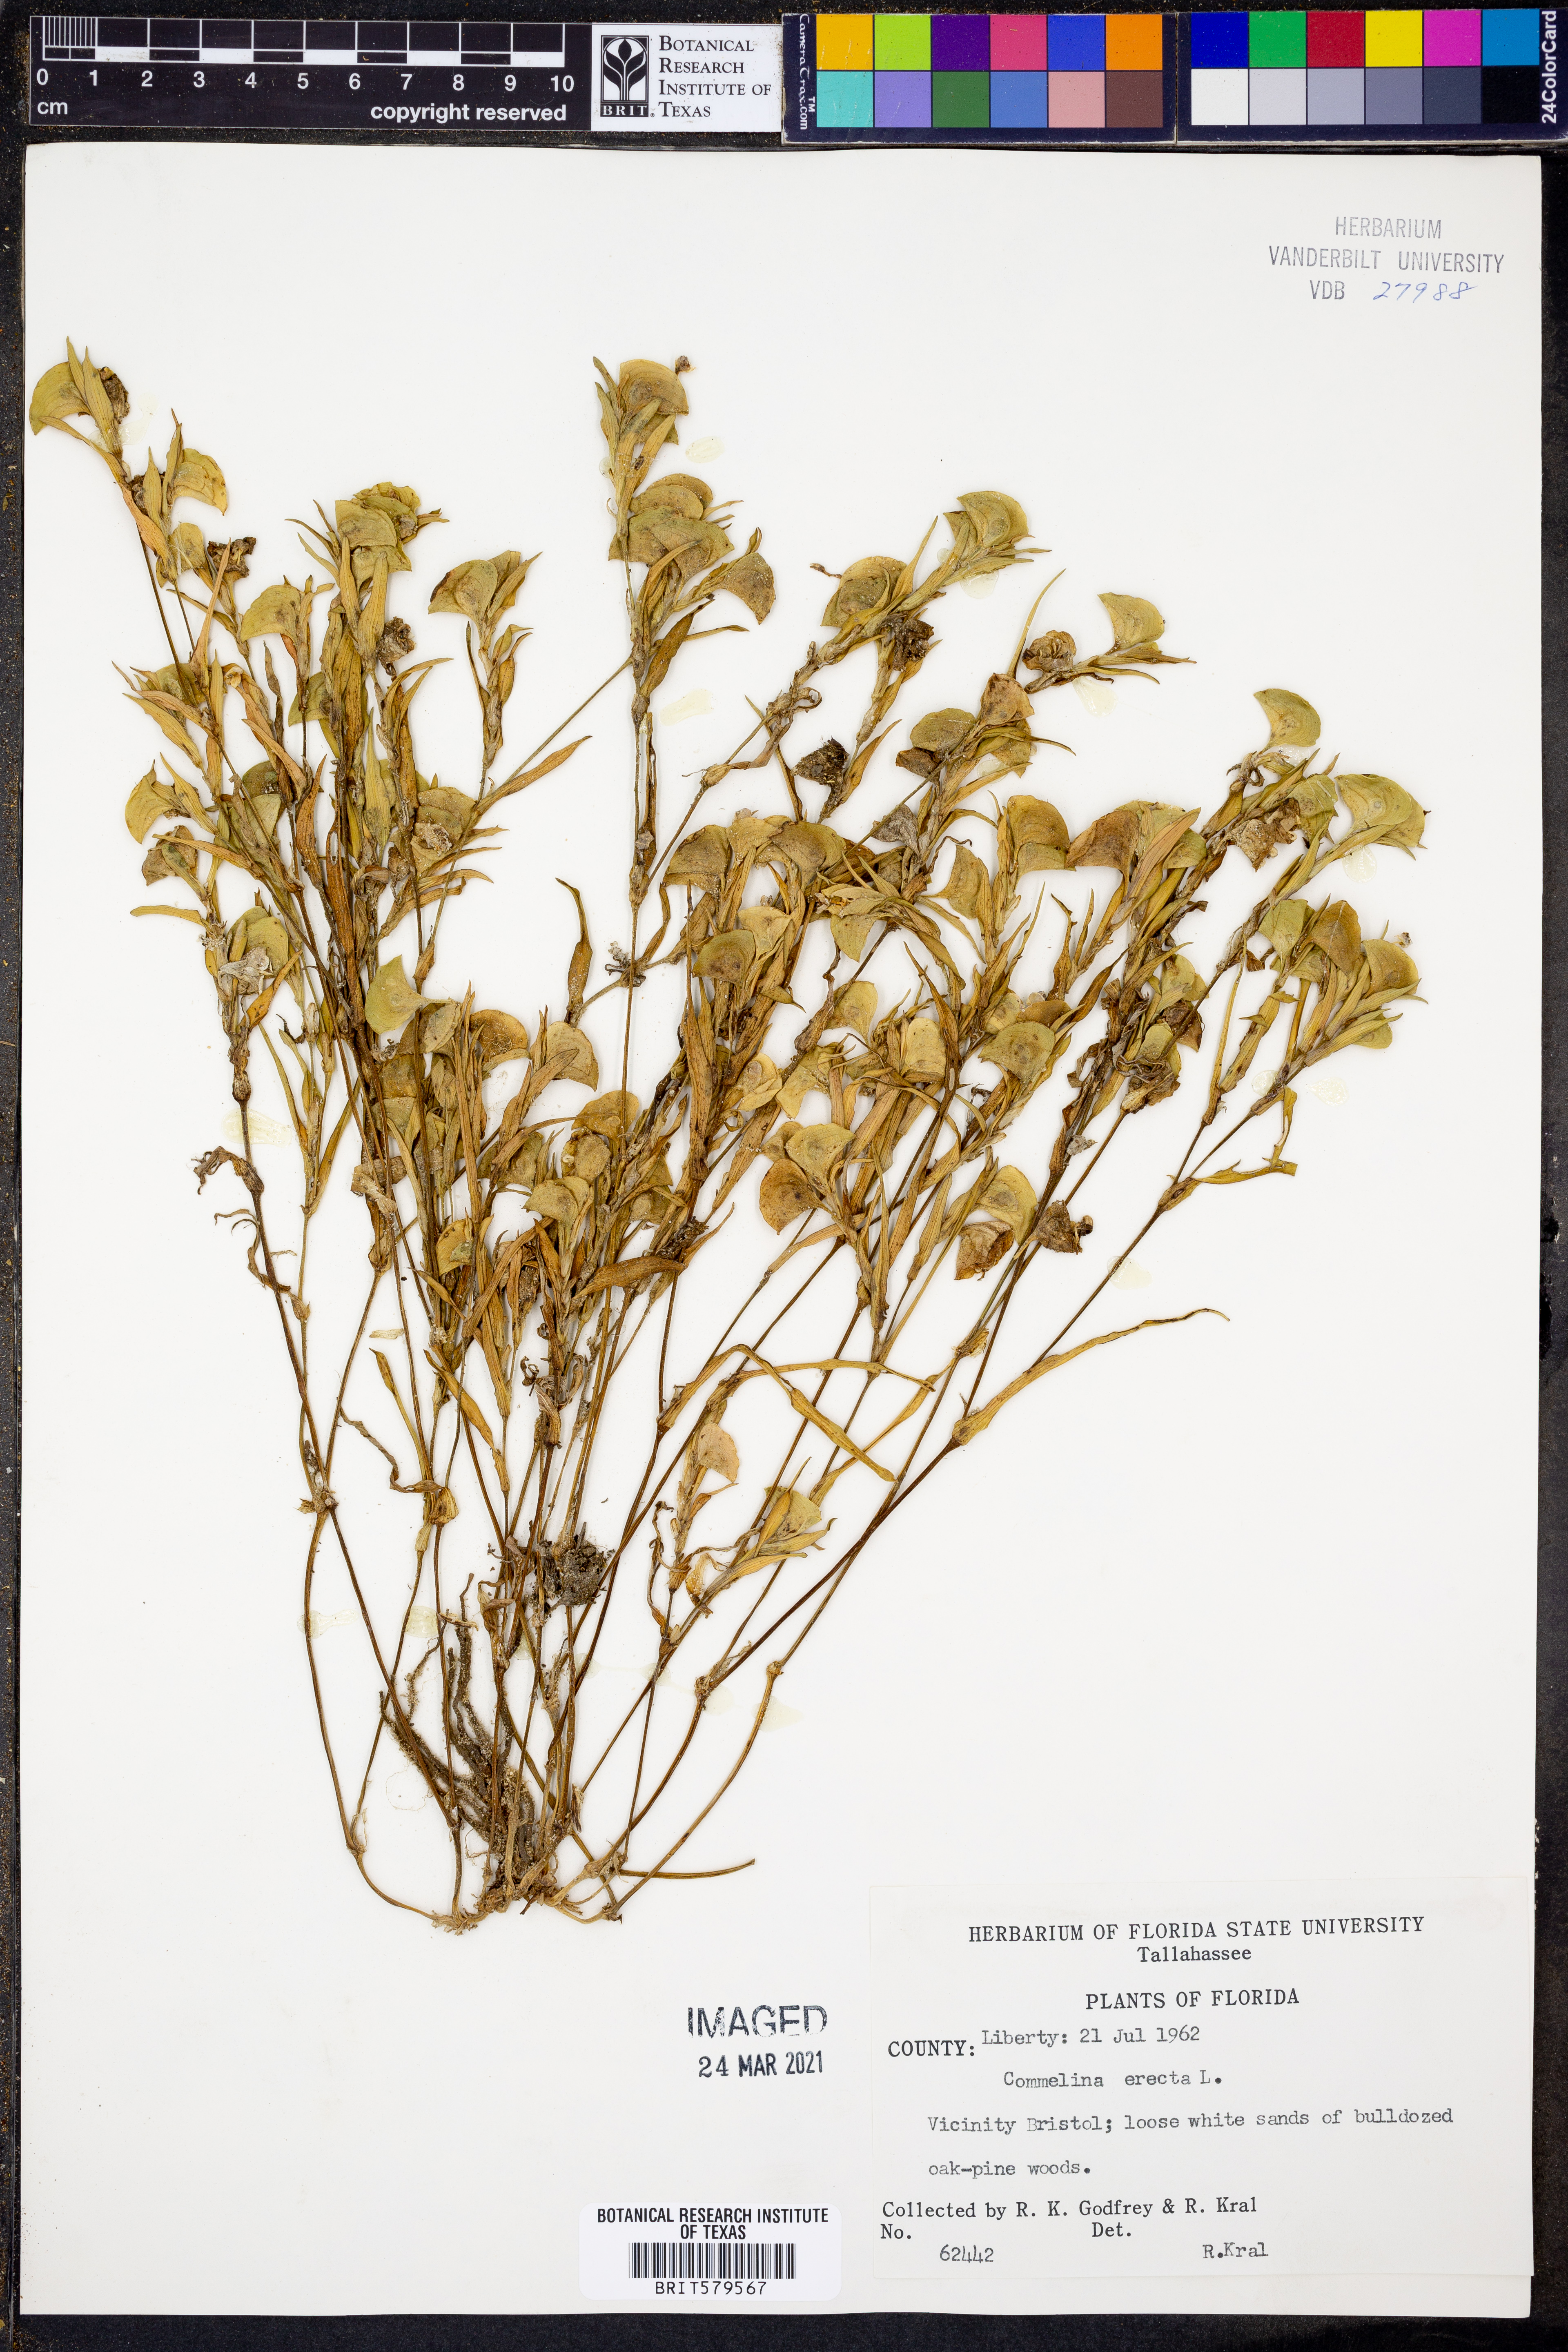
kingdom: Plantae
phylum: Tracheophyta
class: Liliopsida
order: Commelinales
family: Commelinaceae
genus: Commelina
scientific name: Commelina erecta
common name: Blousel blommetjie
